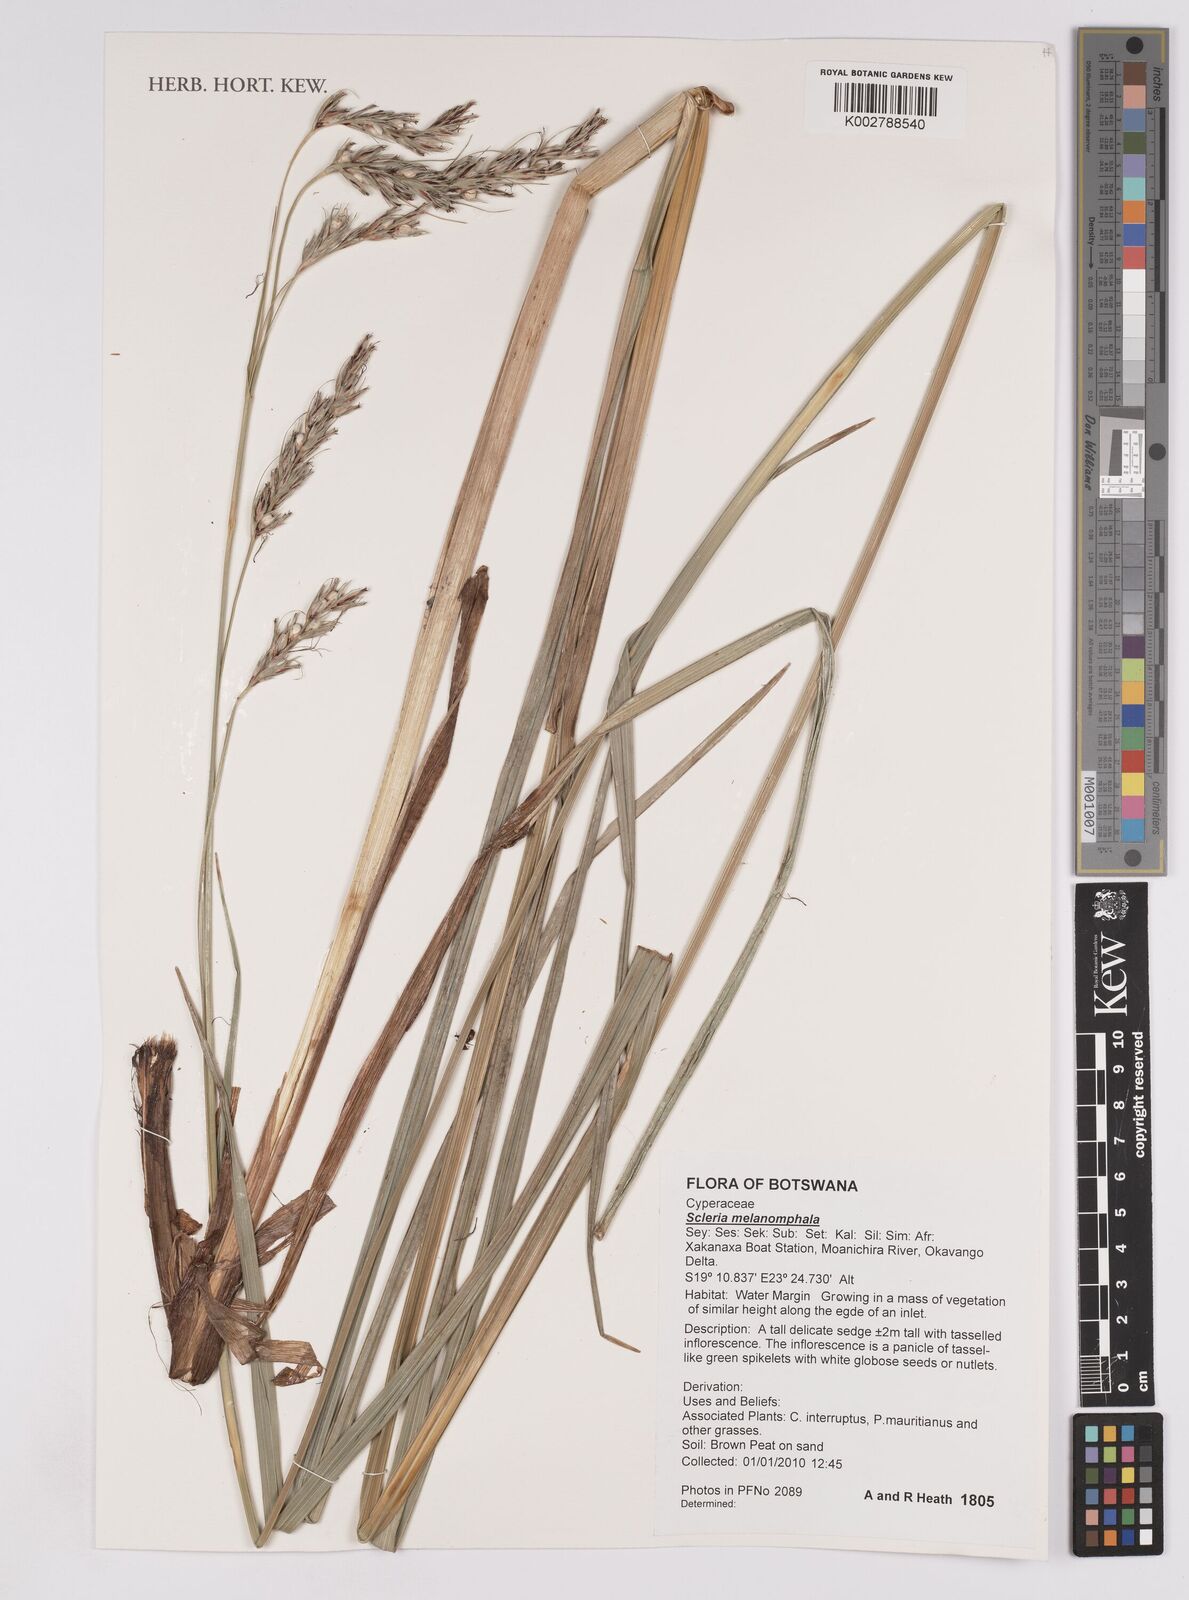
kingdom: Plantae
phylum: Tracheophyta
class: Liliopsida
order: Poales
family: Cyperaceae
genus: Scleria
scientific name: Scleria melanomphala
